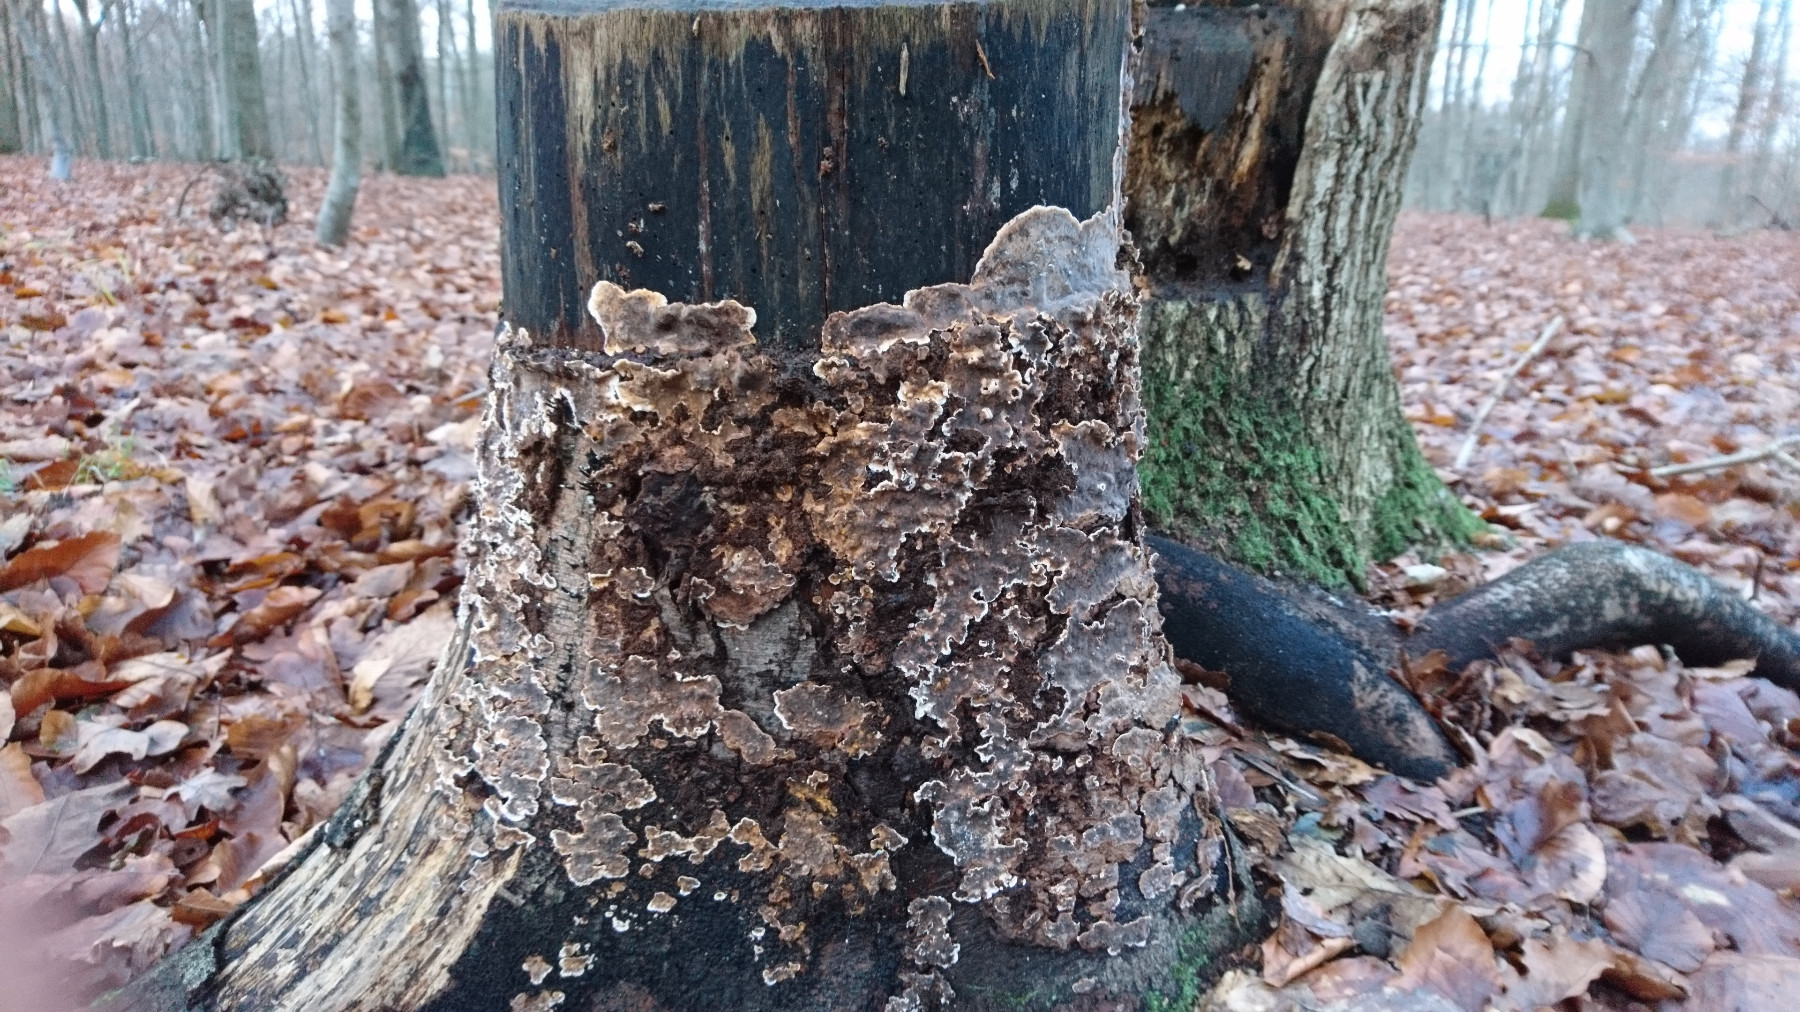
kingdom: Fungi
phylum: Basidiomycota
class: Agaricomycetes
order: Russulales
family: Stereaceae
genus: Stereum
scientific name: Stereum rugosum
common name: rynket lædersvamp
